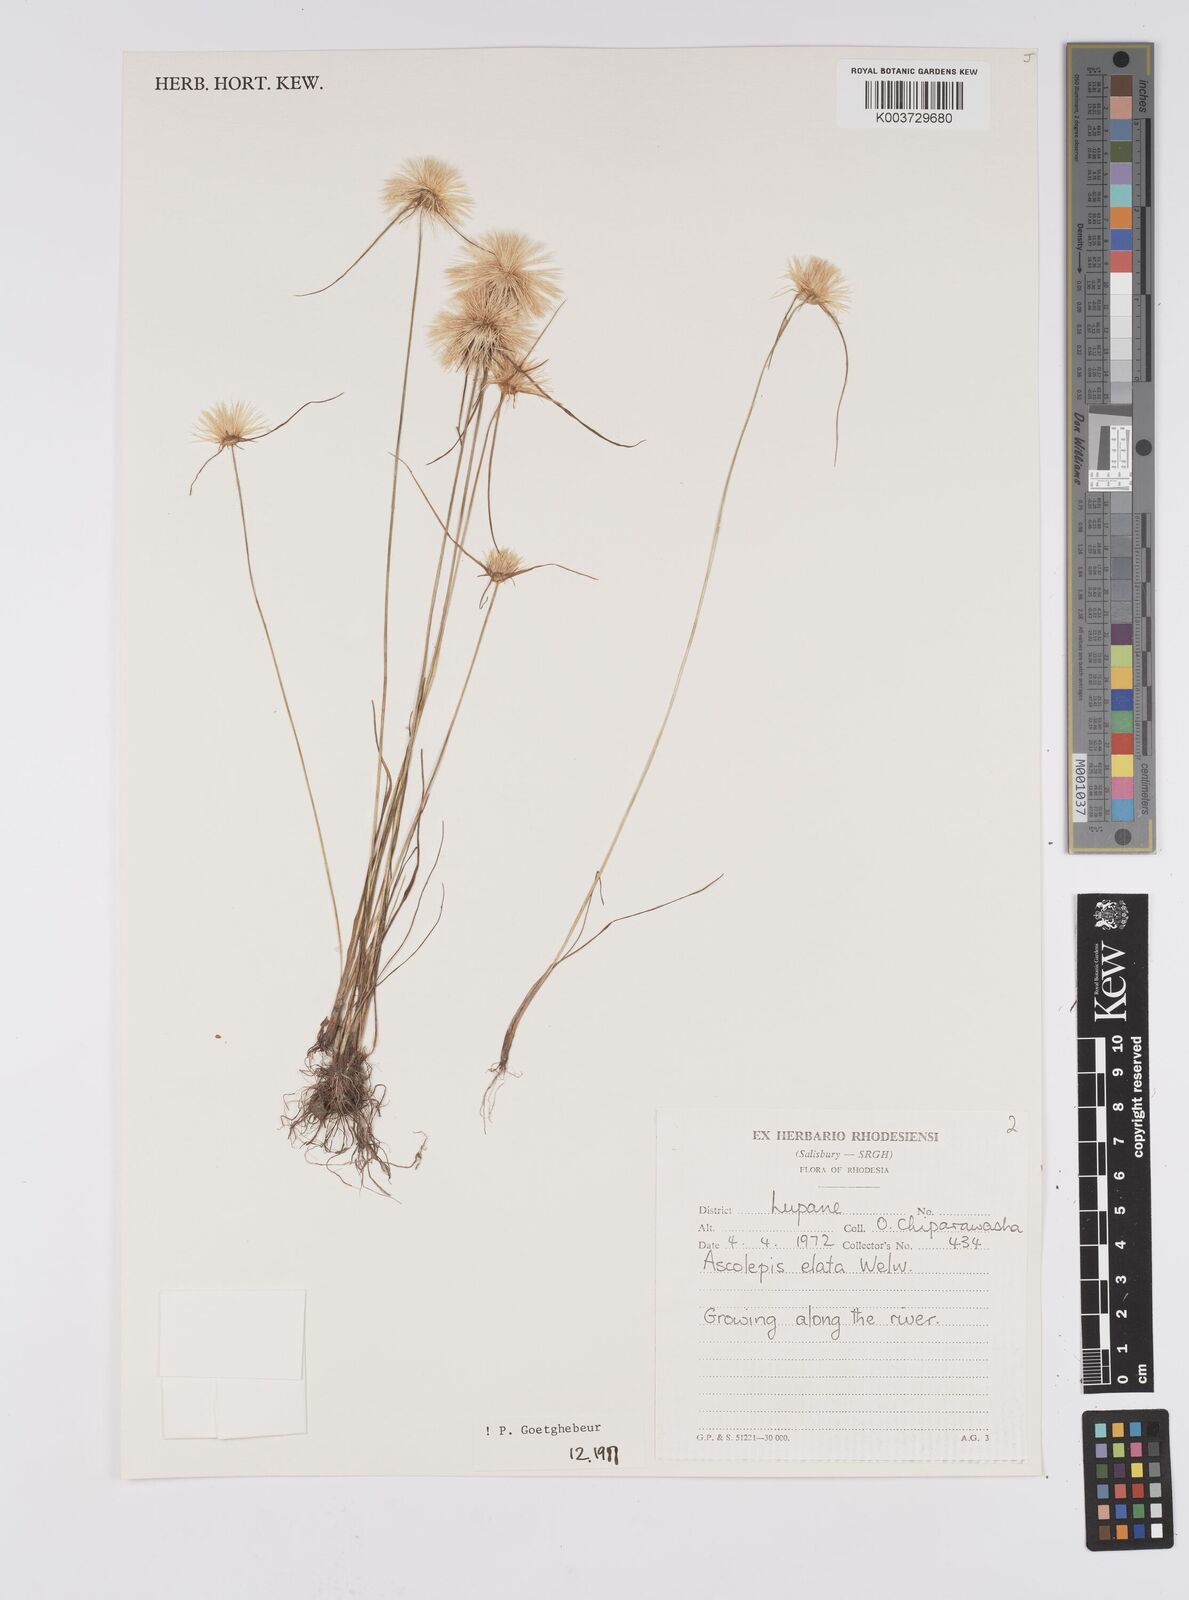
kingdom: Plantae
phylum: Tracheophyta
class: Liliopsida
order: Poales
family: Cyperaceae
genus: Cyperus
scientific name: Cyperus
